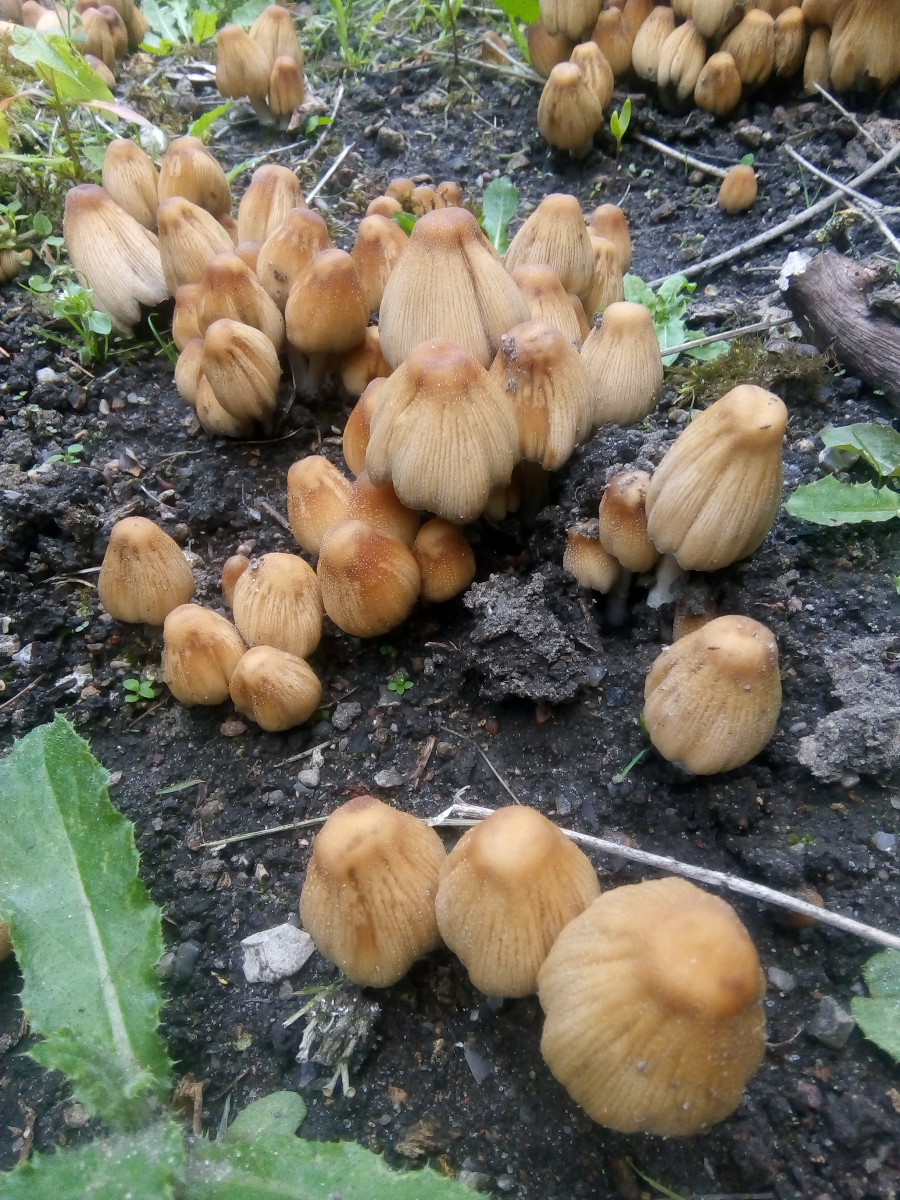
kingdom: Fungi
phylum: Basidiomycota
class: Agaricomycetes
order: Agaricales
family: Psathyrellaceae
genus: Coprinellus
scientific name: Coprinellus micaceus
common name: glimmer-blækhat
